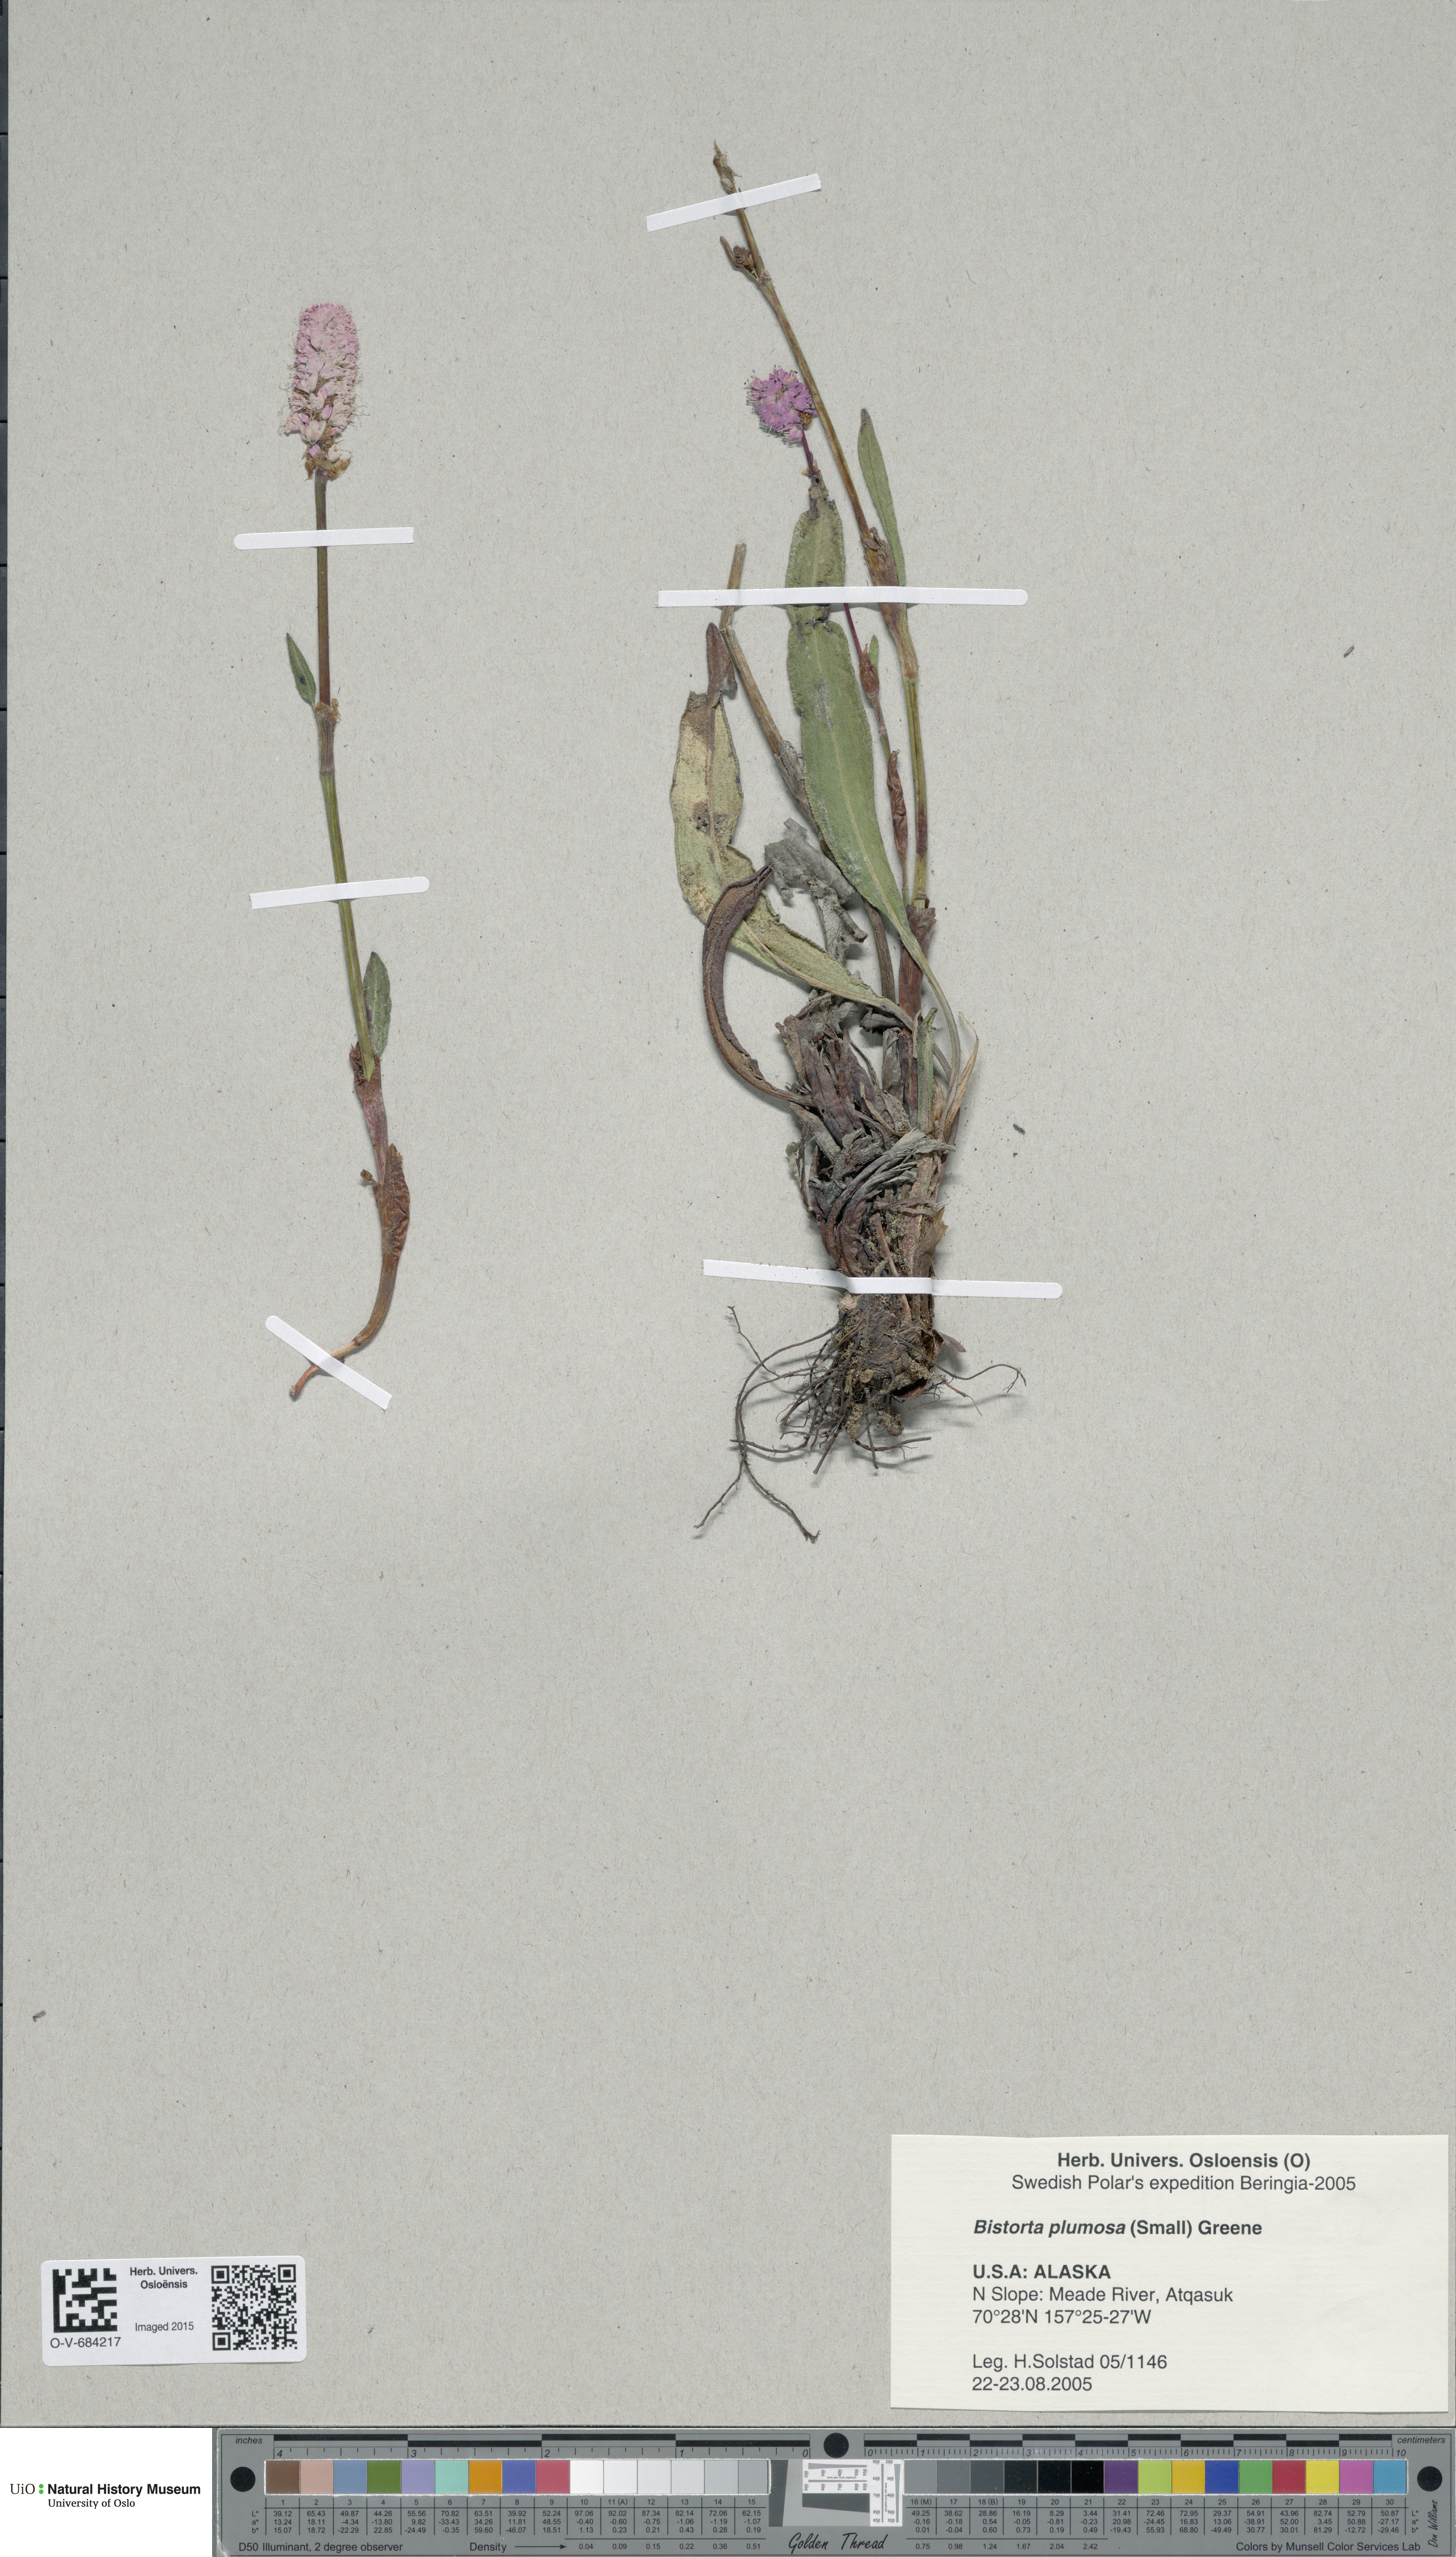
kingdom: Plantae
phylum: Tracheophyta
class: Magnoliopsida
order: Caryophyllales
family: Polygonaceae
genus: Bistorta
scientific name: Bistorta plumosa
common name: Meadow bistort
